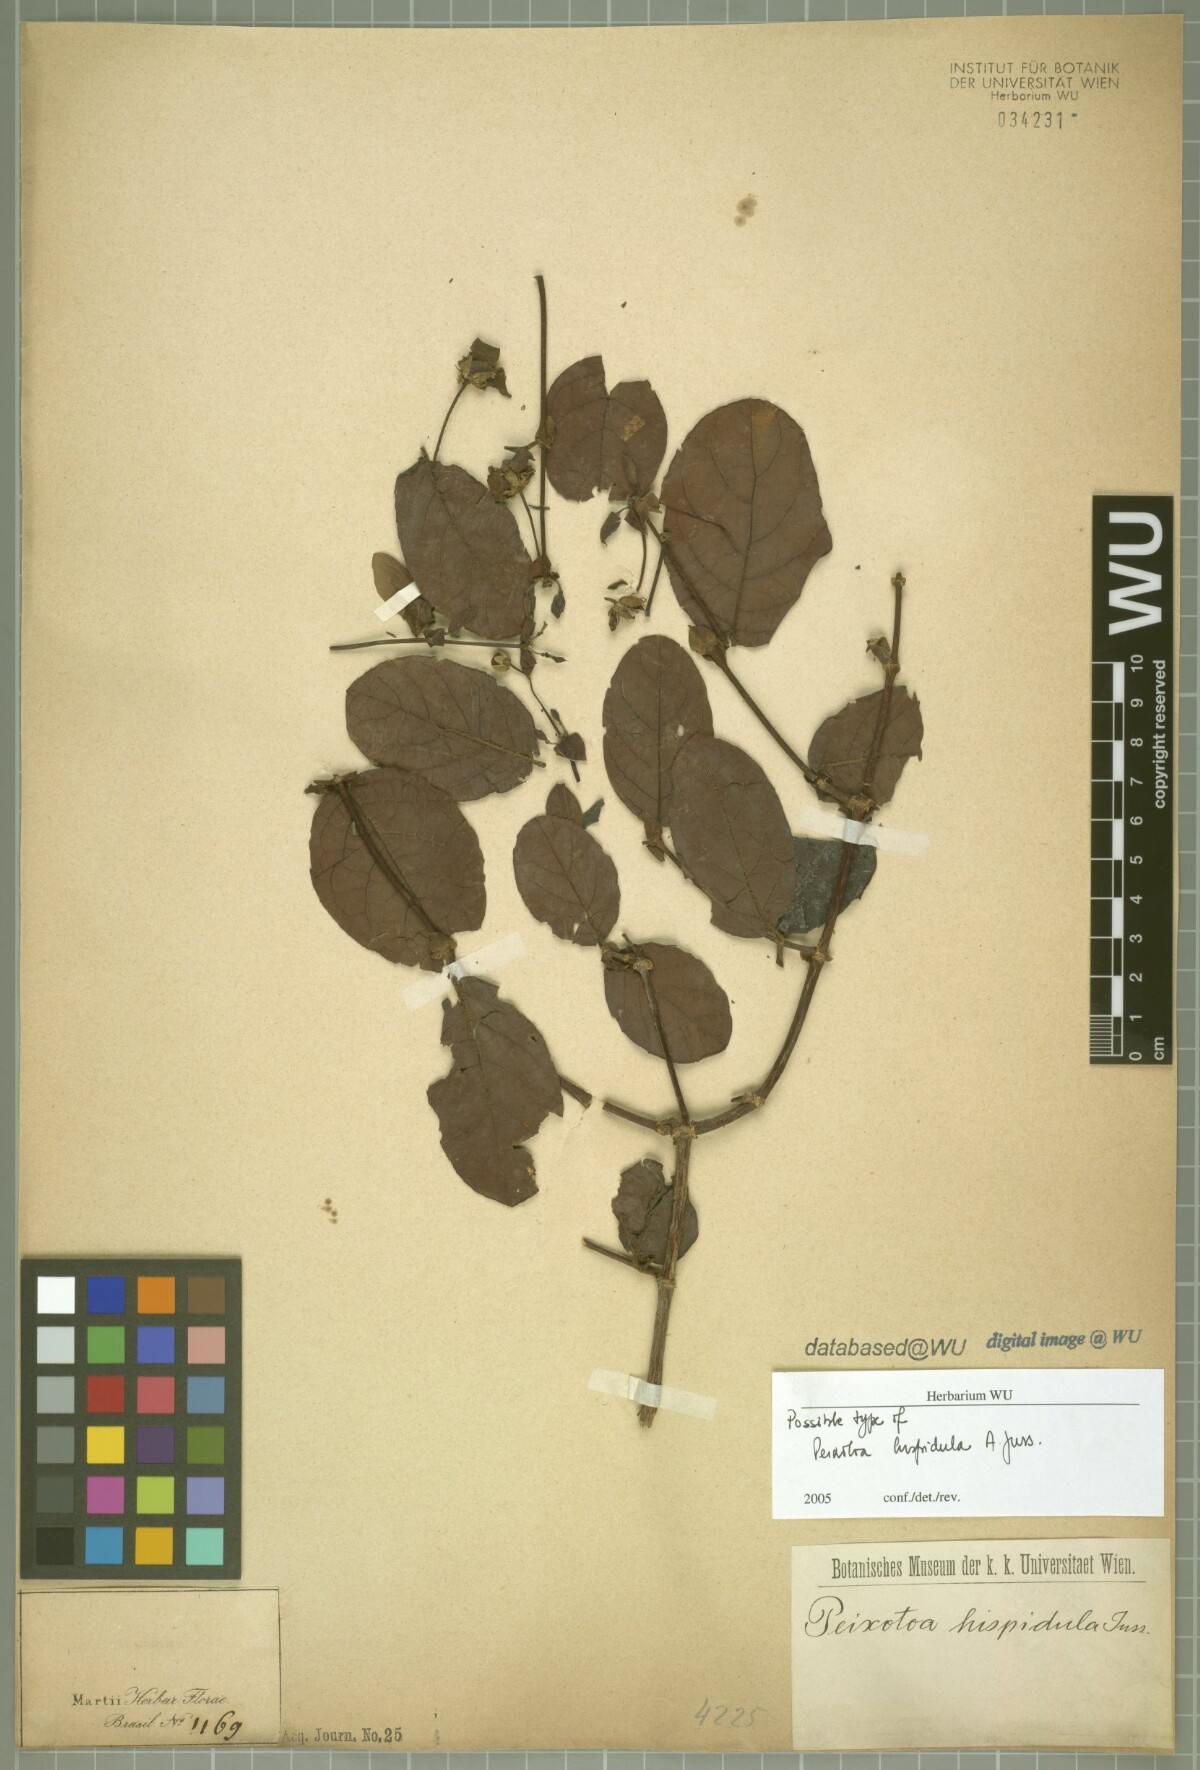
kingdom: Plantae
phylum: Tracheophyta
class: Magnoliopsida
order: Malpighiales
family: Malpighiaceae
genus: Peixotoa
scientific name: Peixotoa hispidula
